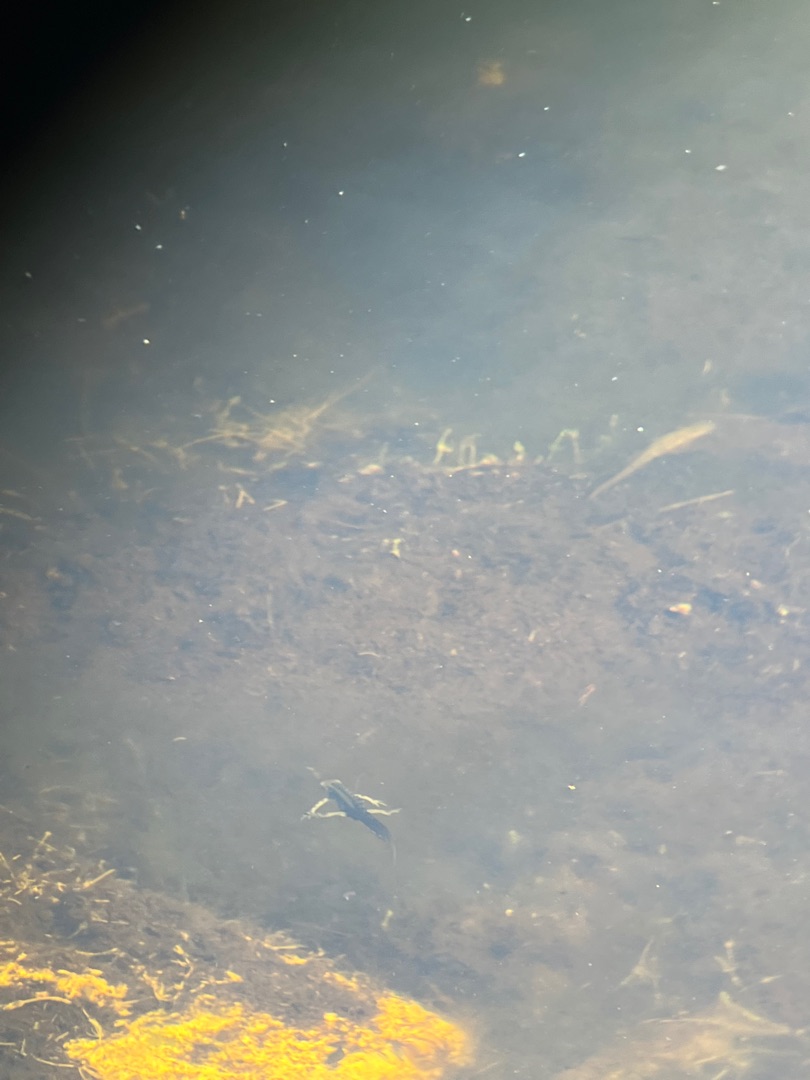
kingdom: Animalia
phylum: Chordata
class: Amphibia
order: Caudata
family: Salamandridae
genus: Lissotriton
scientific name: Lissotriton vulgaris
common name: Lille vandsalamander
